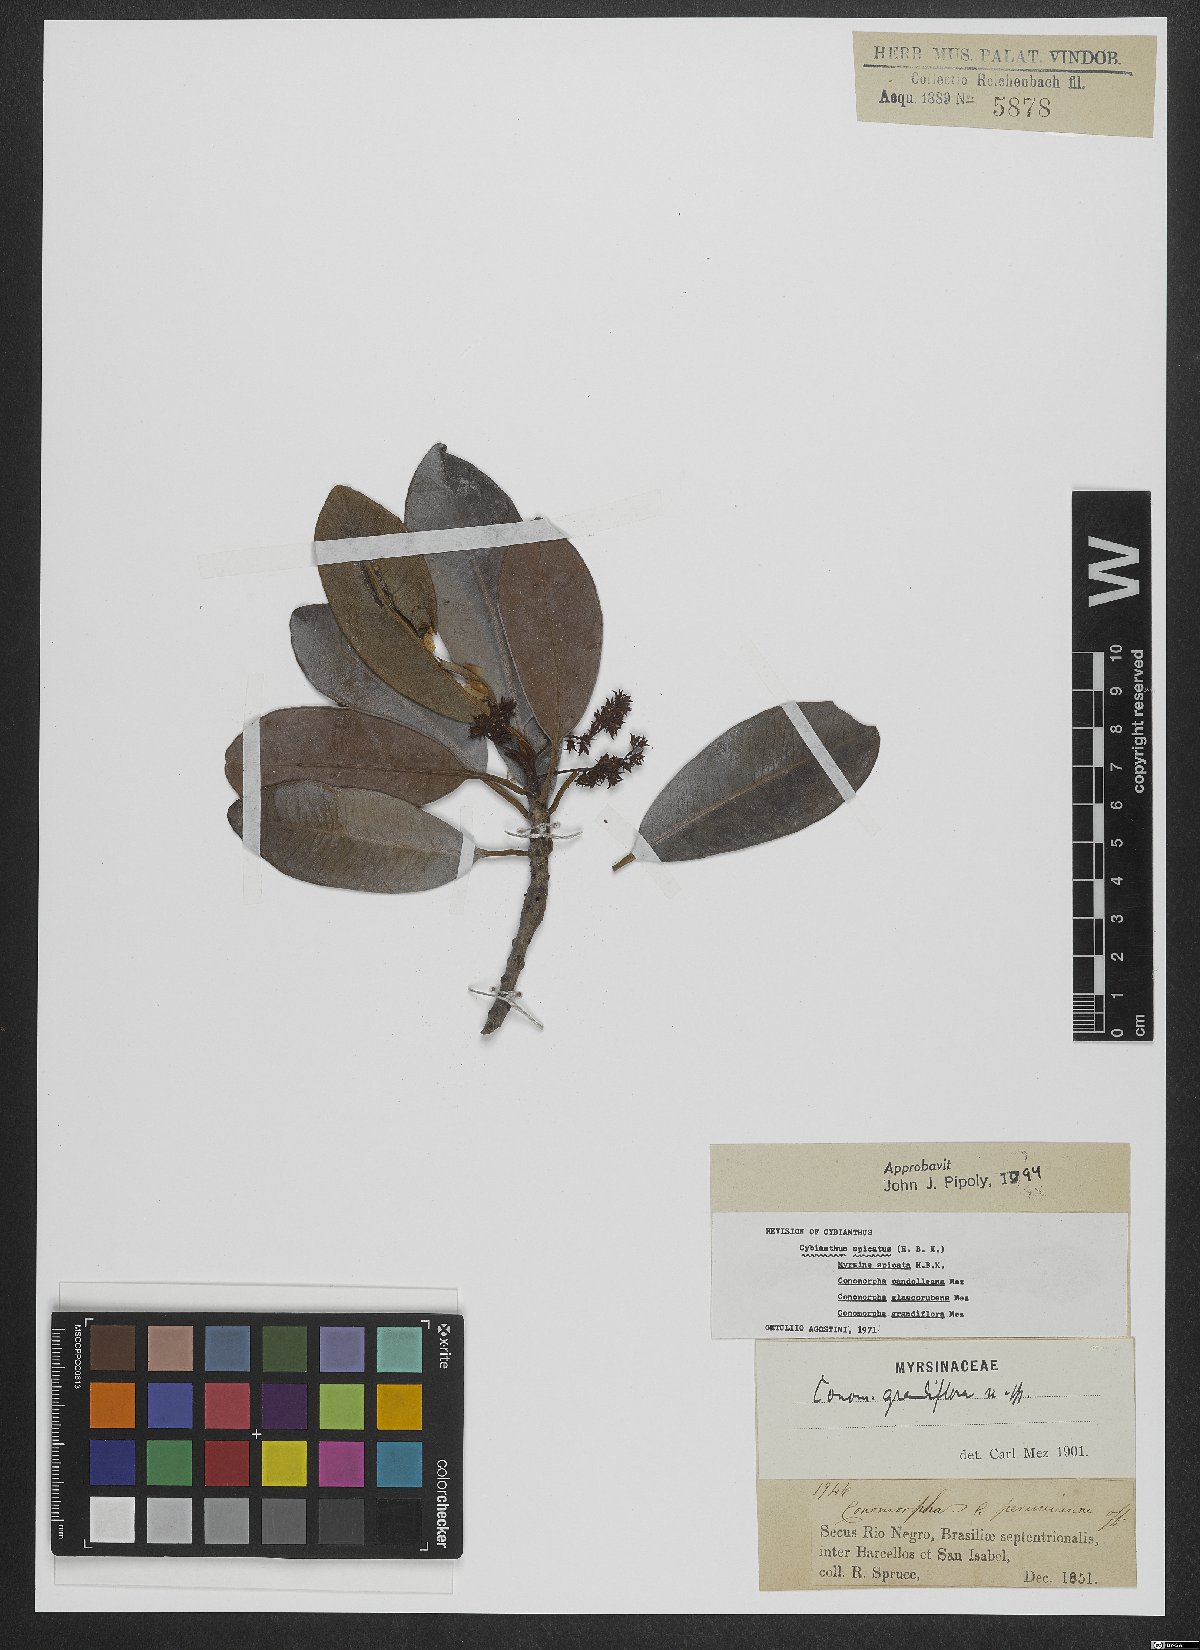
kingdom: Plantae
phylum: Tracheophyta
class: Magnoliopsida
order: Ericales
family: Primulaceae
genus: Cybianthus
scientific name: Cybianthus spicatus
